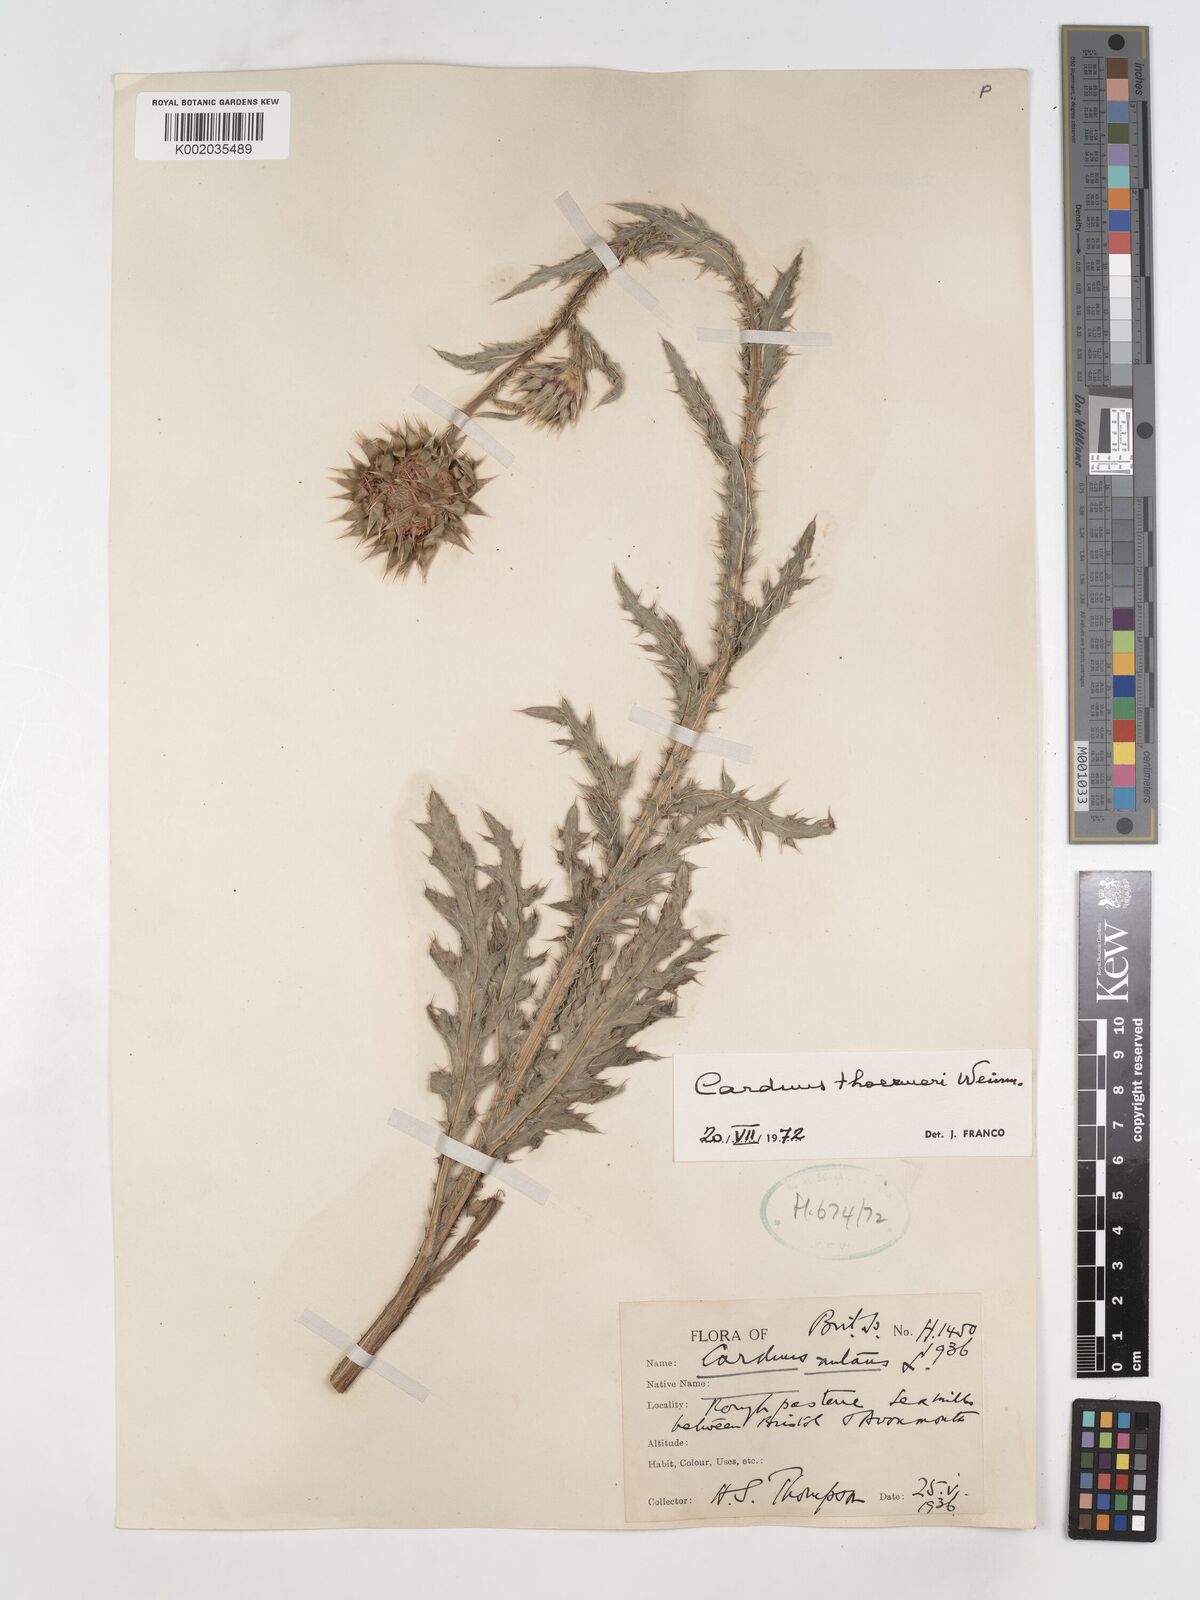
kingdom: Plantae
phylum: Tracheophyta
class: Magnoliopsida
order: Asterales
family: Asteraceae
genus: Carduus
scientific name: Carduus nutans
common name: Musk thistle
